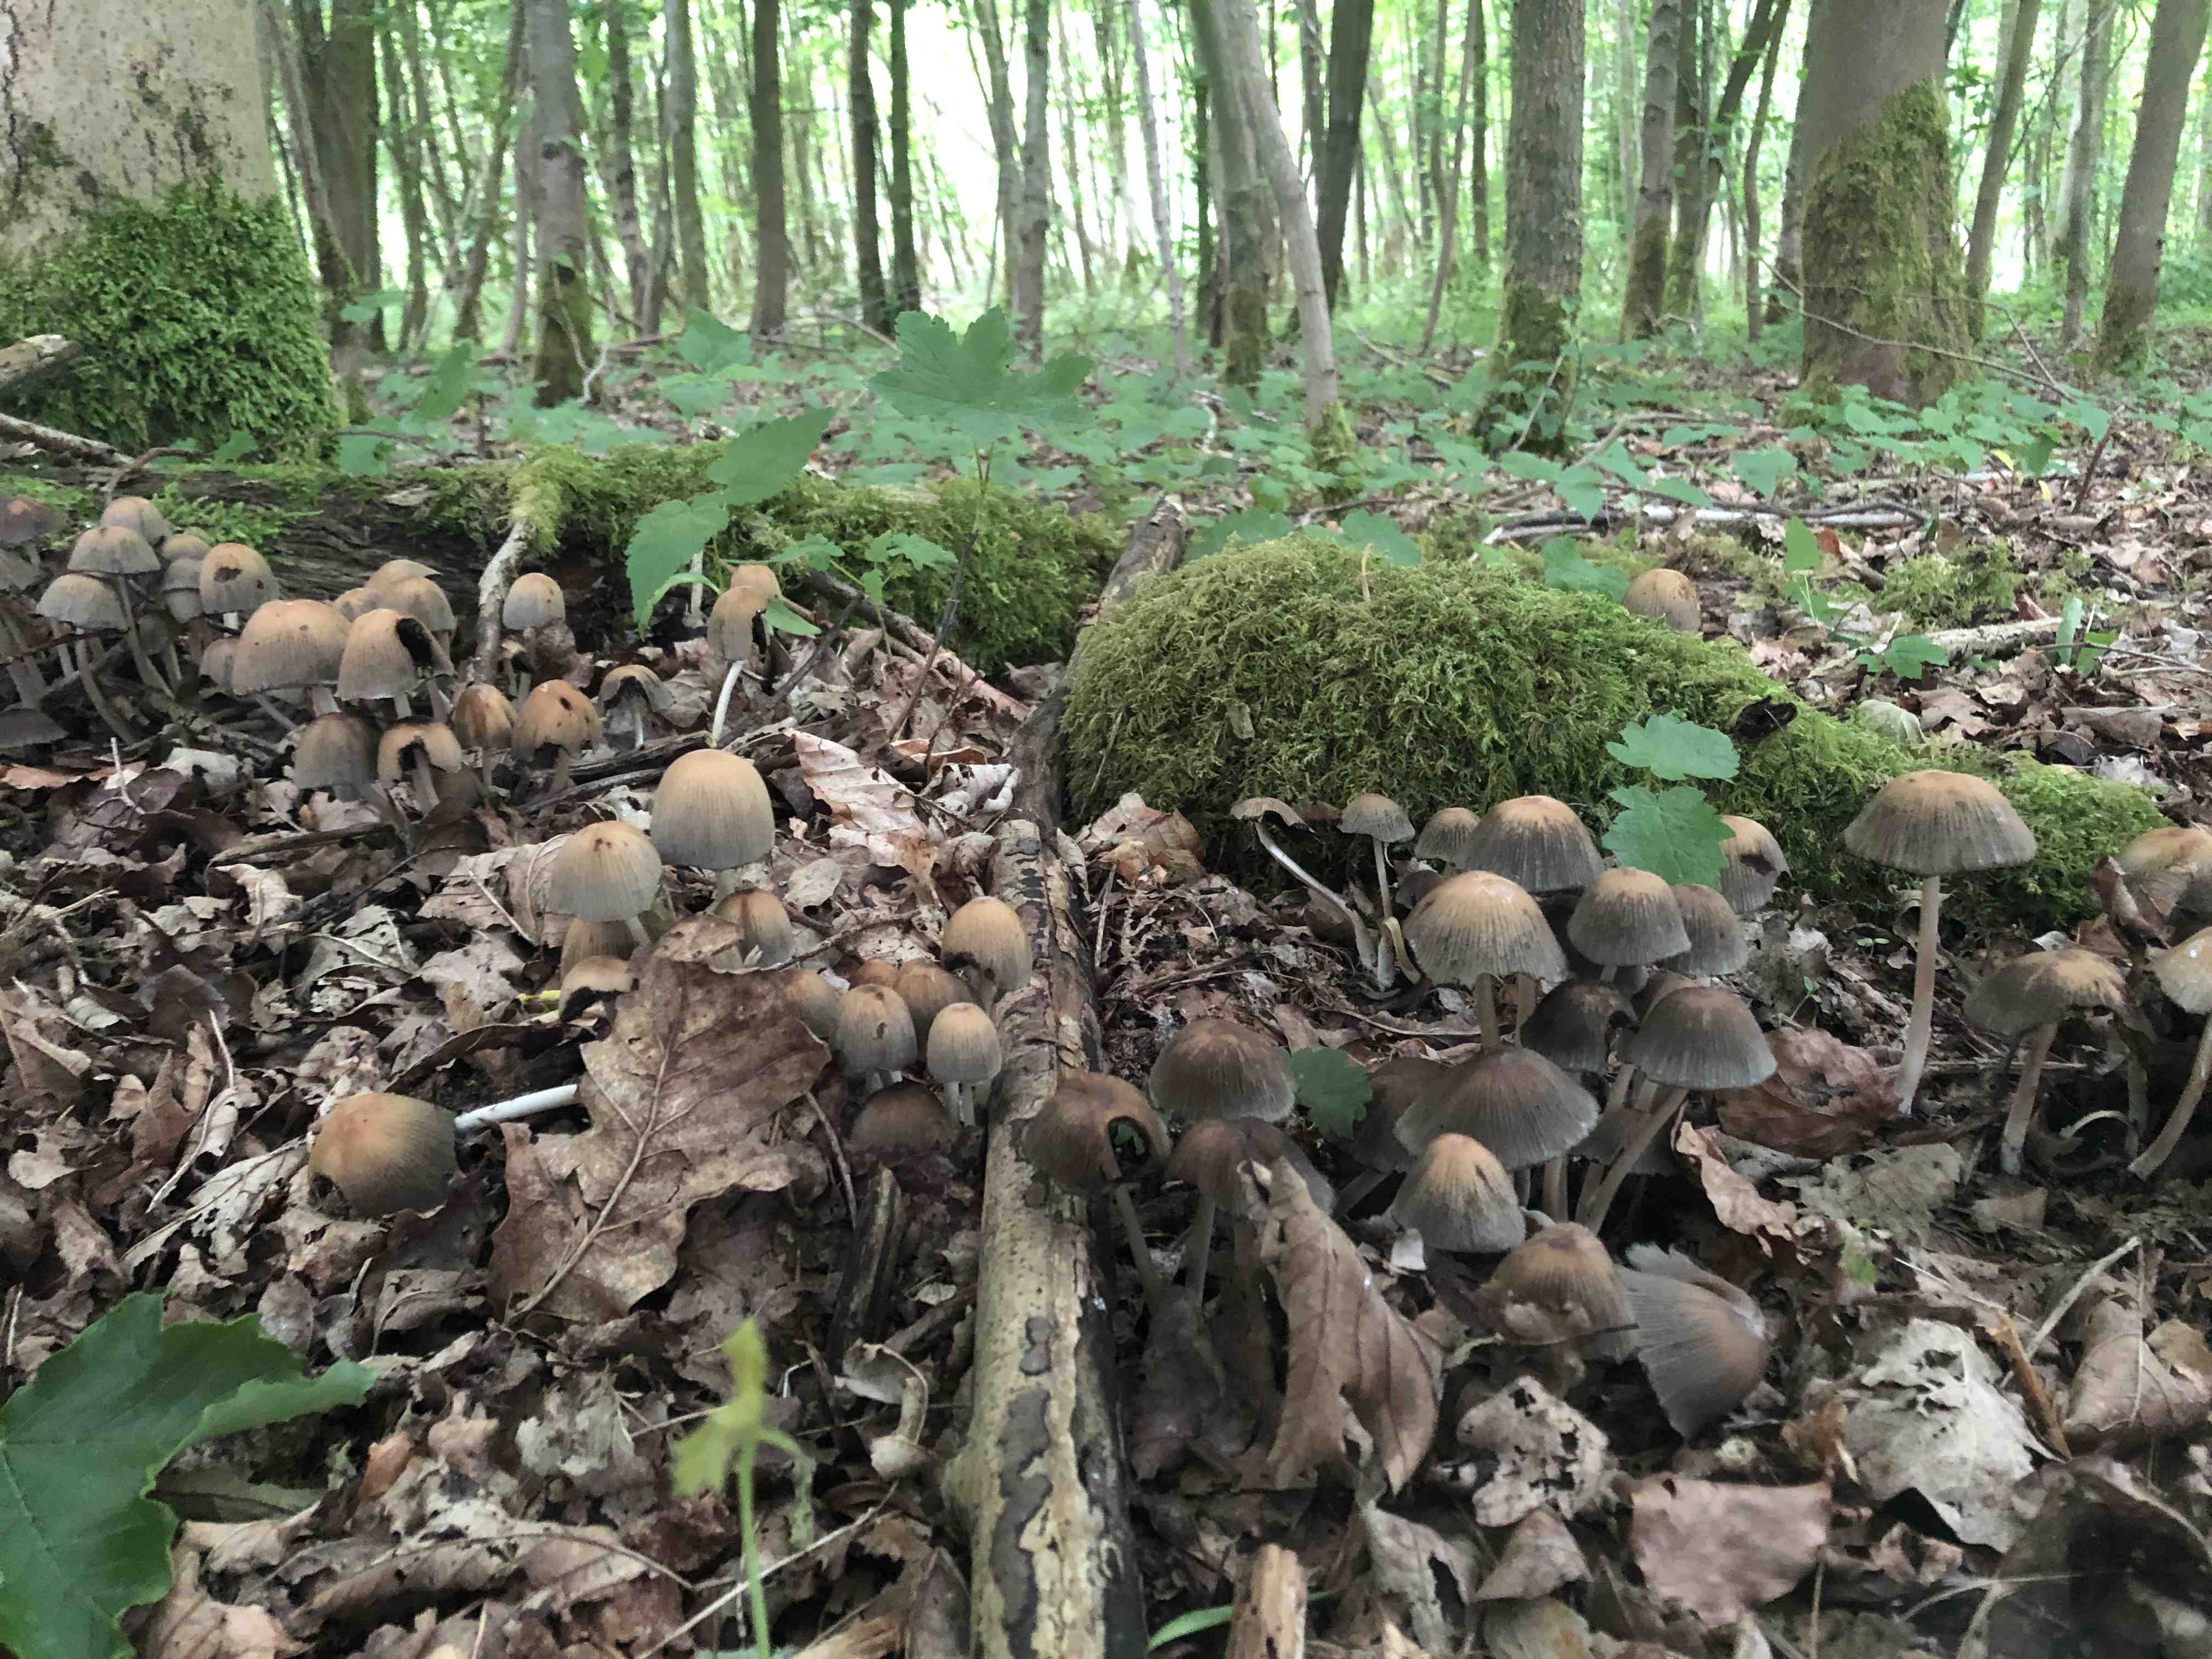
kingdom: Fungi
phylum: Basidiomycota
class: Agaricomycetes
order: Agaricales
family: Psathyrellaceae
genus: Coprinellus
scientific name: Coprinellus
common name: blækhat
